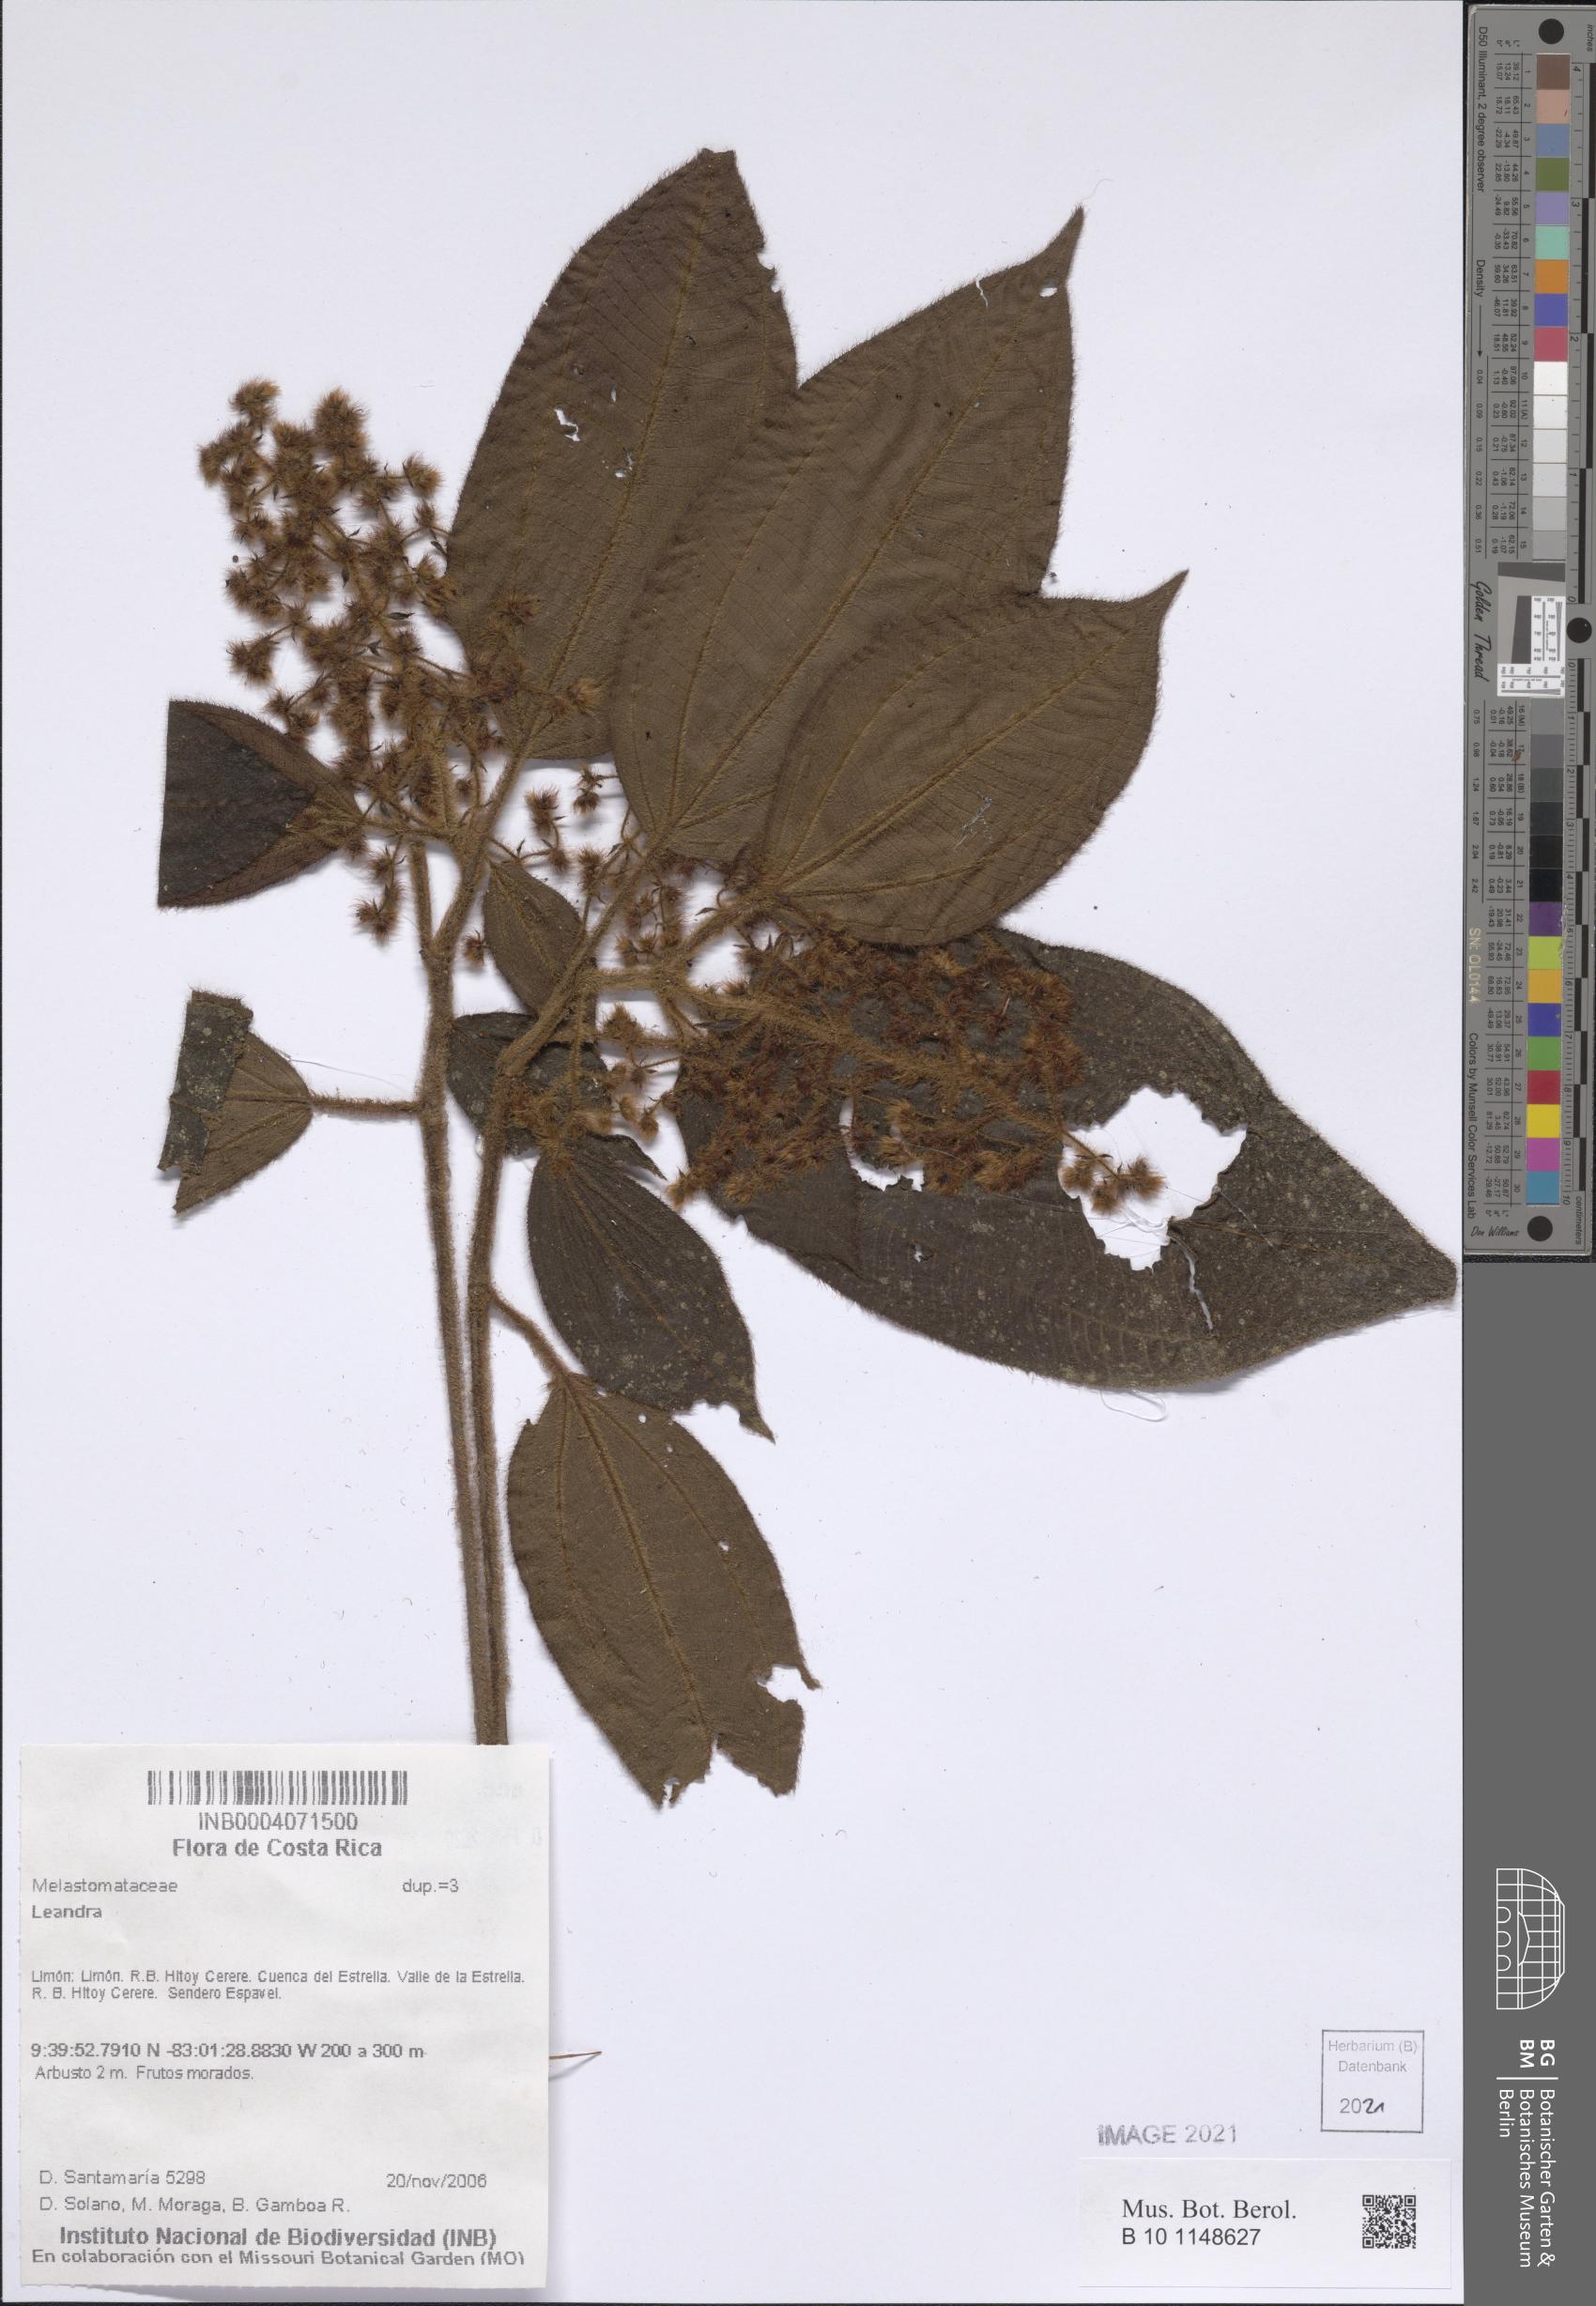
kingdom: Plantae
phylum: Tracheophyta
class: Magnoliopsida
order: Myrtales
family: Melastomataceae
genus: Miconia
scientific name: Miconia
